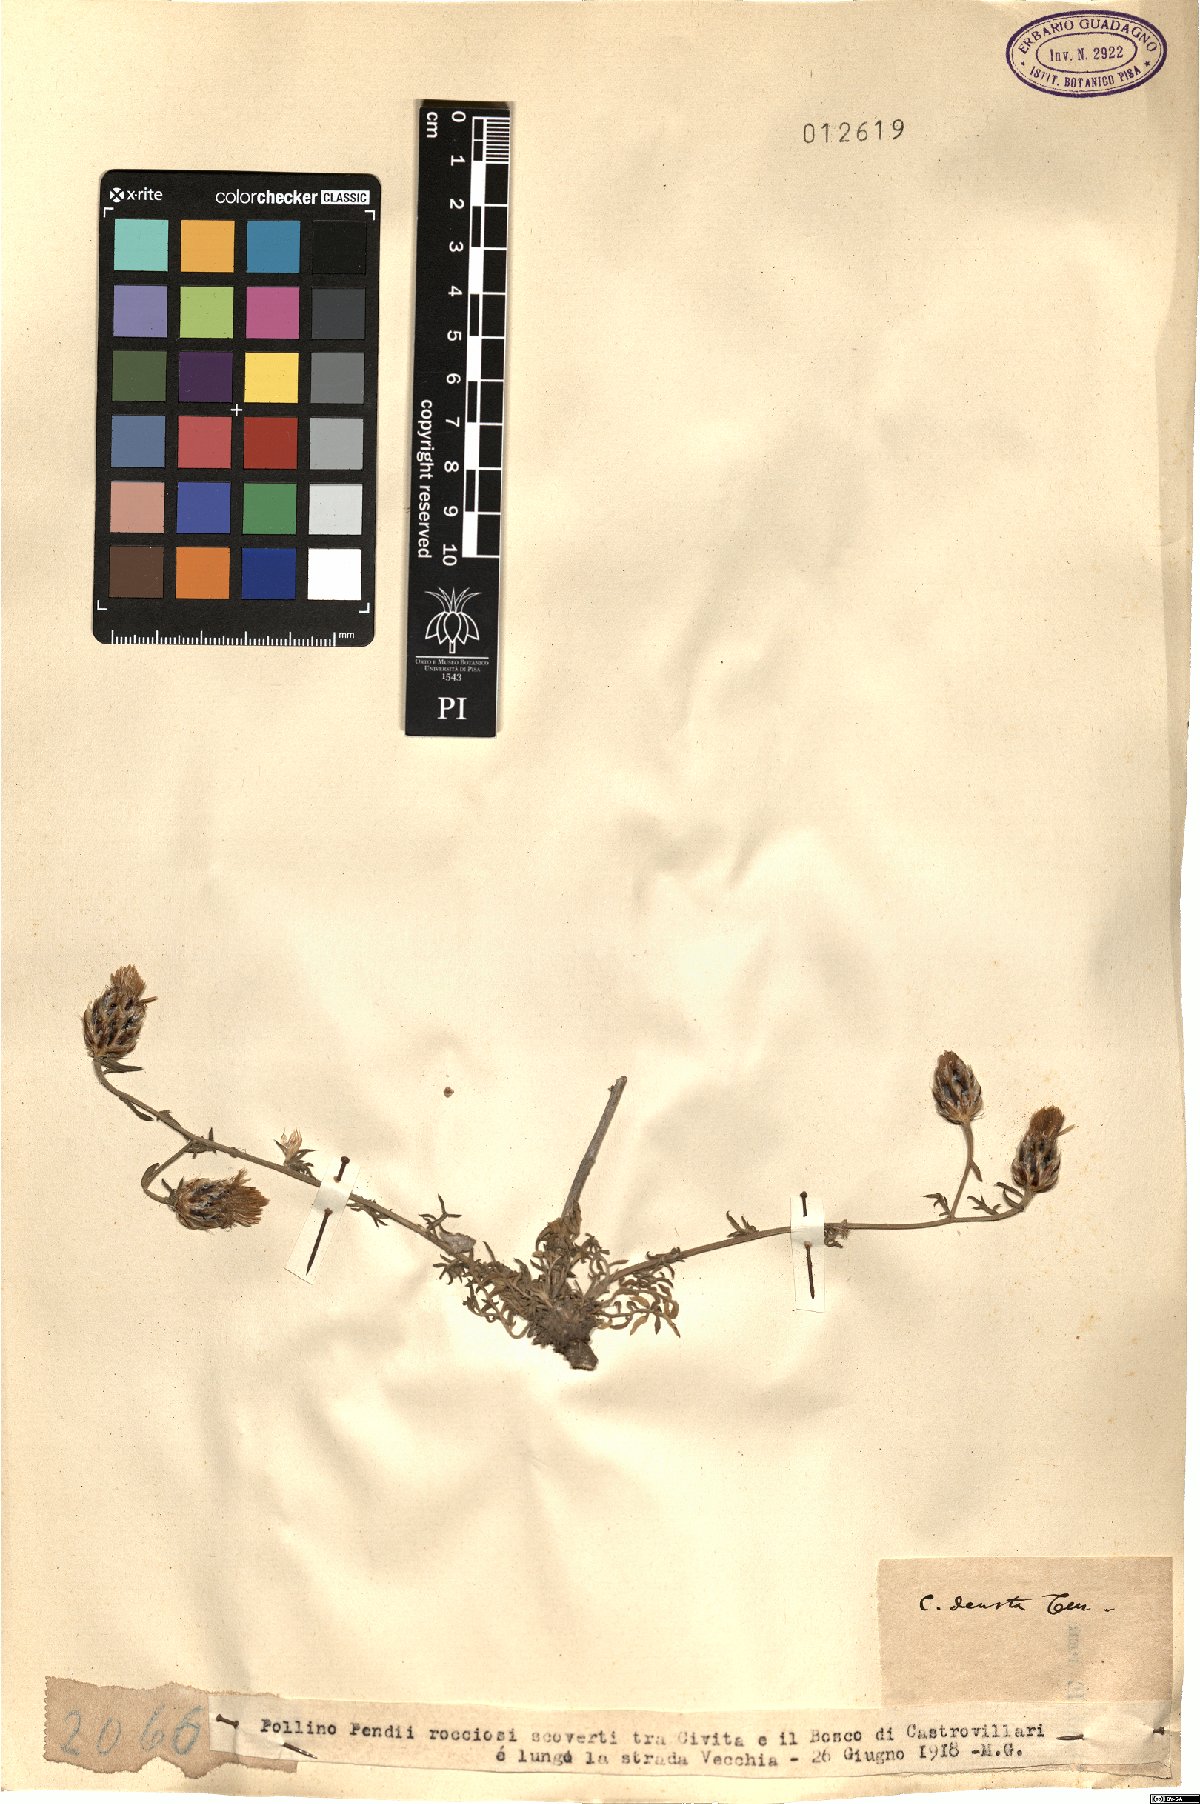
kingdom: Plantae
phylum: Tracheophyta
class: Magnoliopsida
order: Asterales
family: Asteraceae
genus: Centaurea
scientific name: Centaurea deusta
